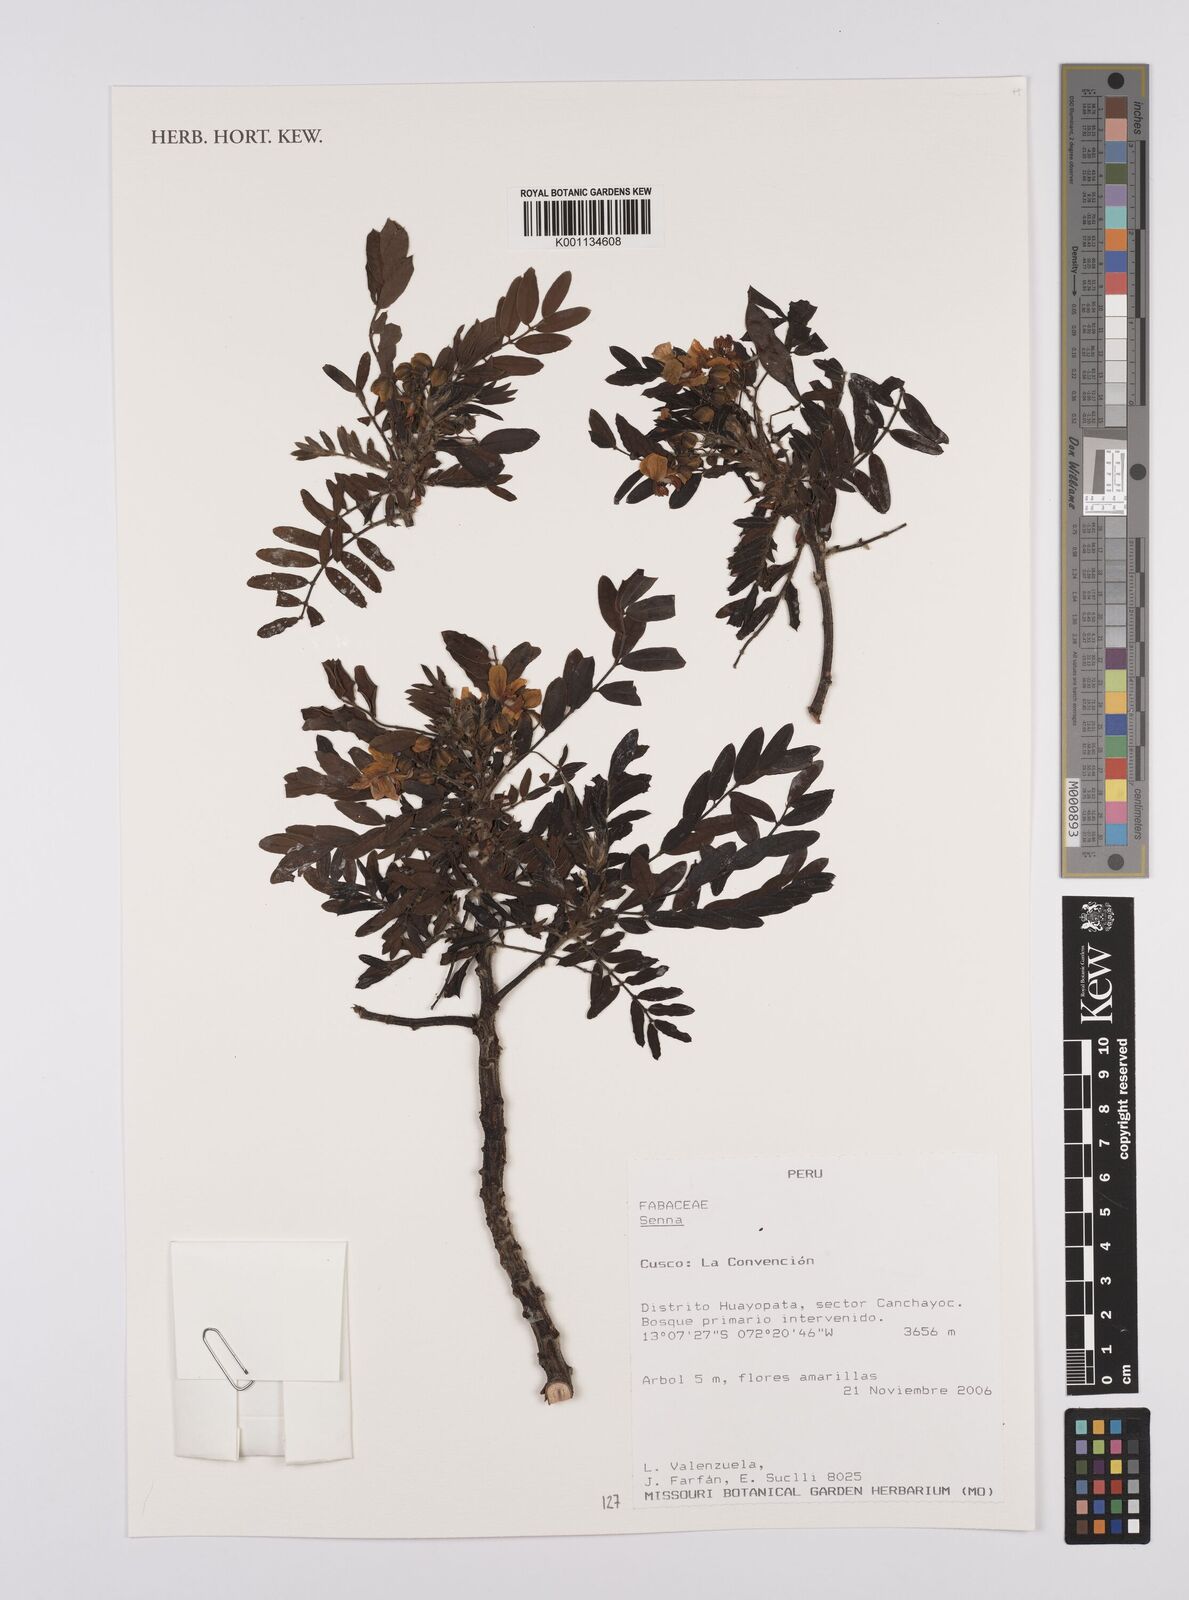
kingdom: Plantae
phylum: Tracheophyta
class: Magnoliopsida
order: Fabales
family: Fabaceae
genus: Senna
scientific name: Senna
